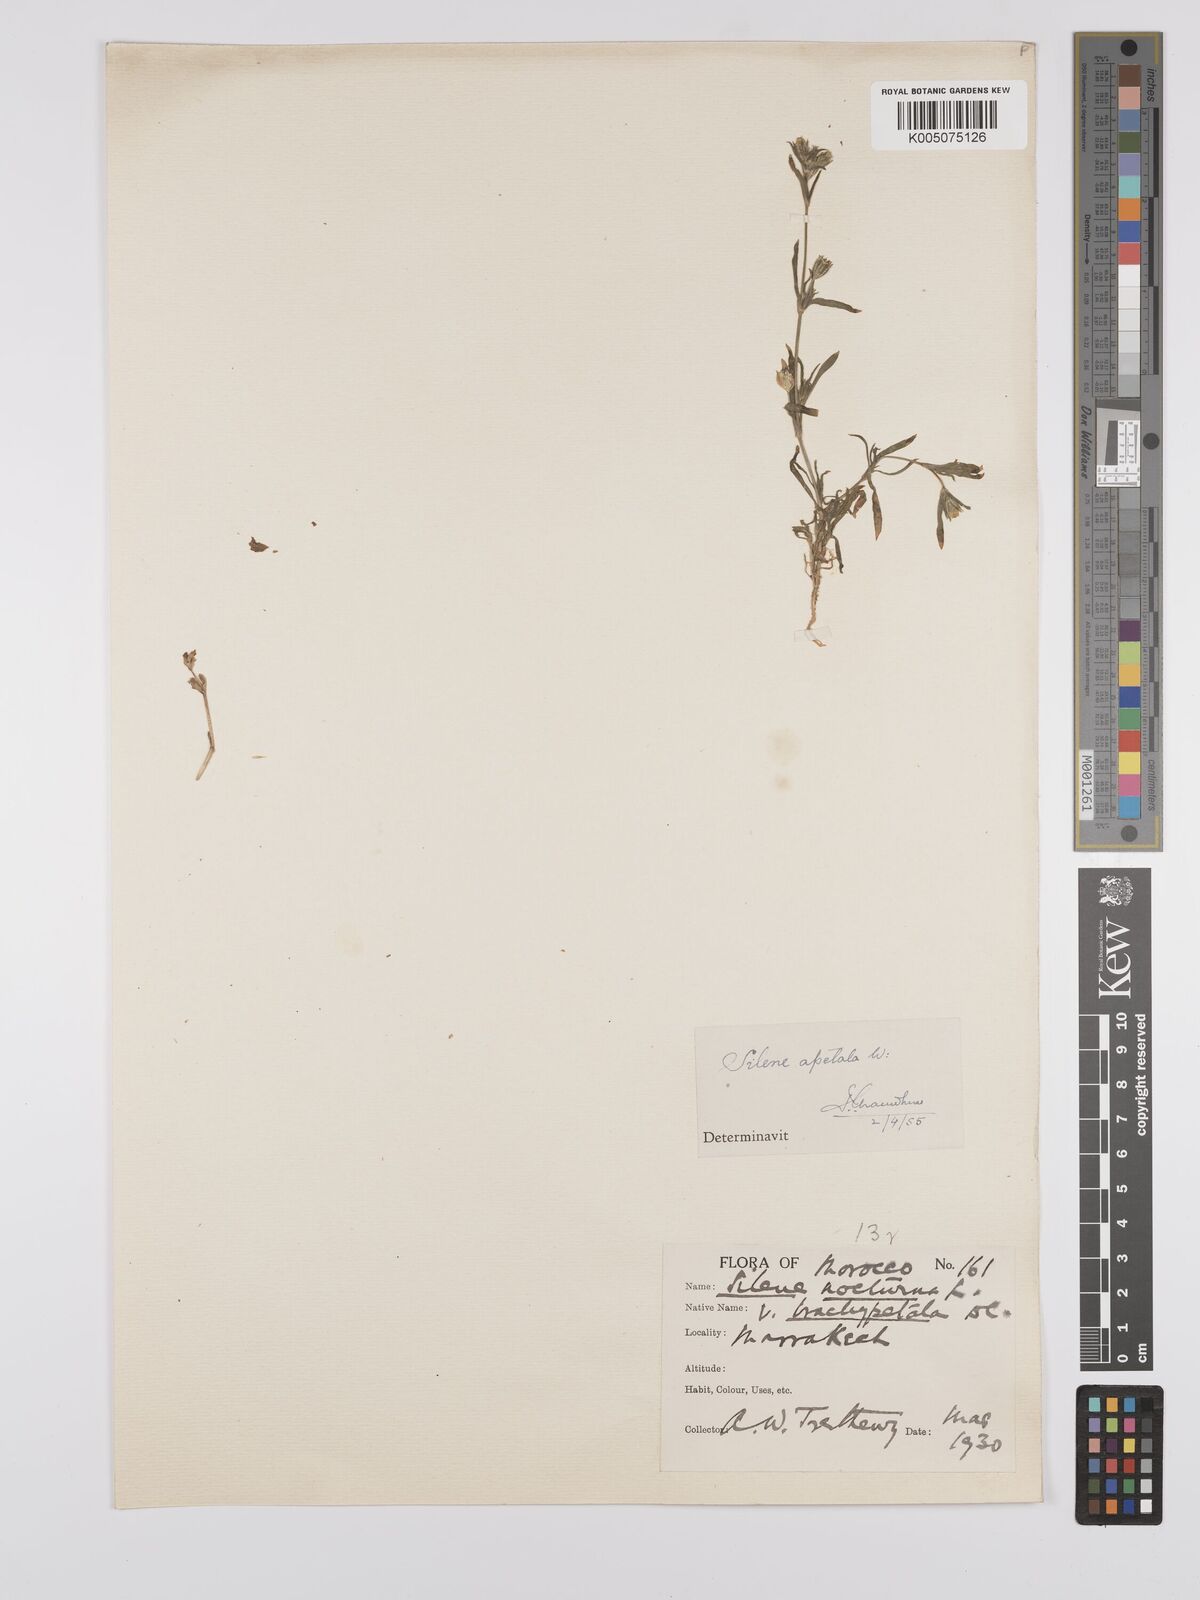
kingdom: Plantae
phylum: Tracheophyta
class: Magnoliopsida
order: Caryophyllales
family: Caryophyllaceae
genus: Silene
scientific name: Silene nocturna
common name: Mediterranean catchfly
